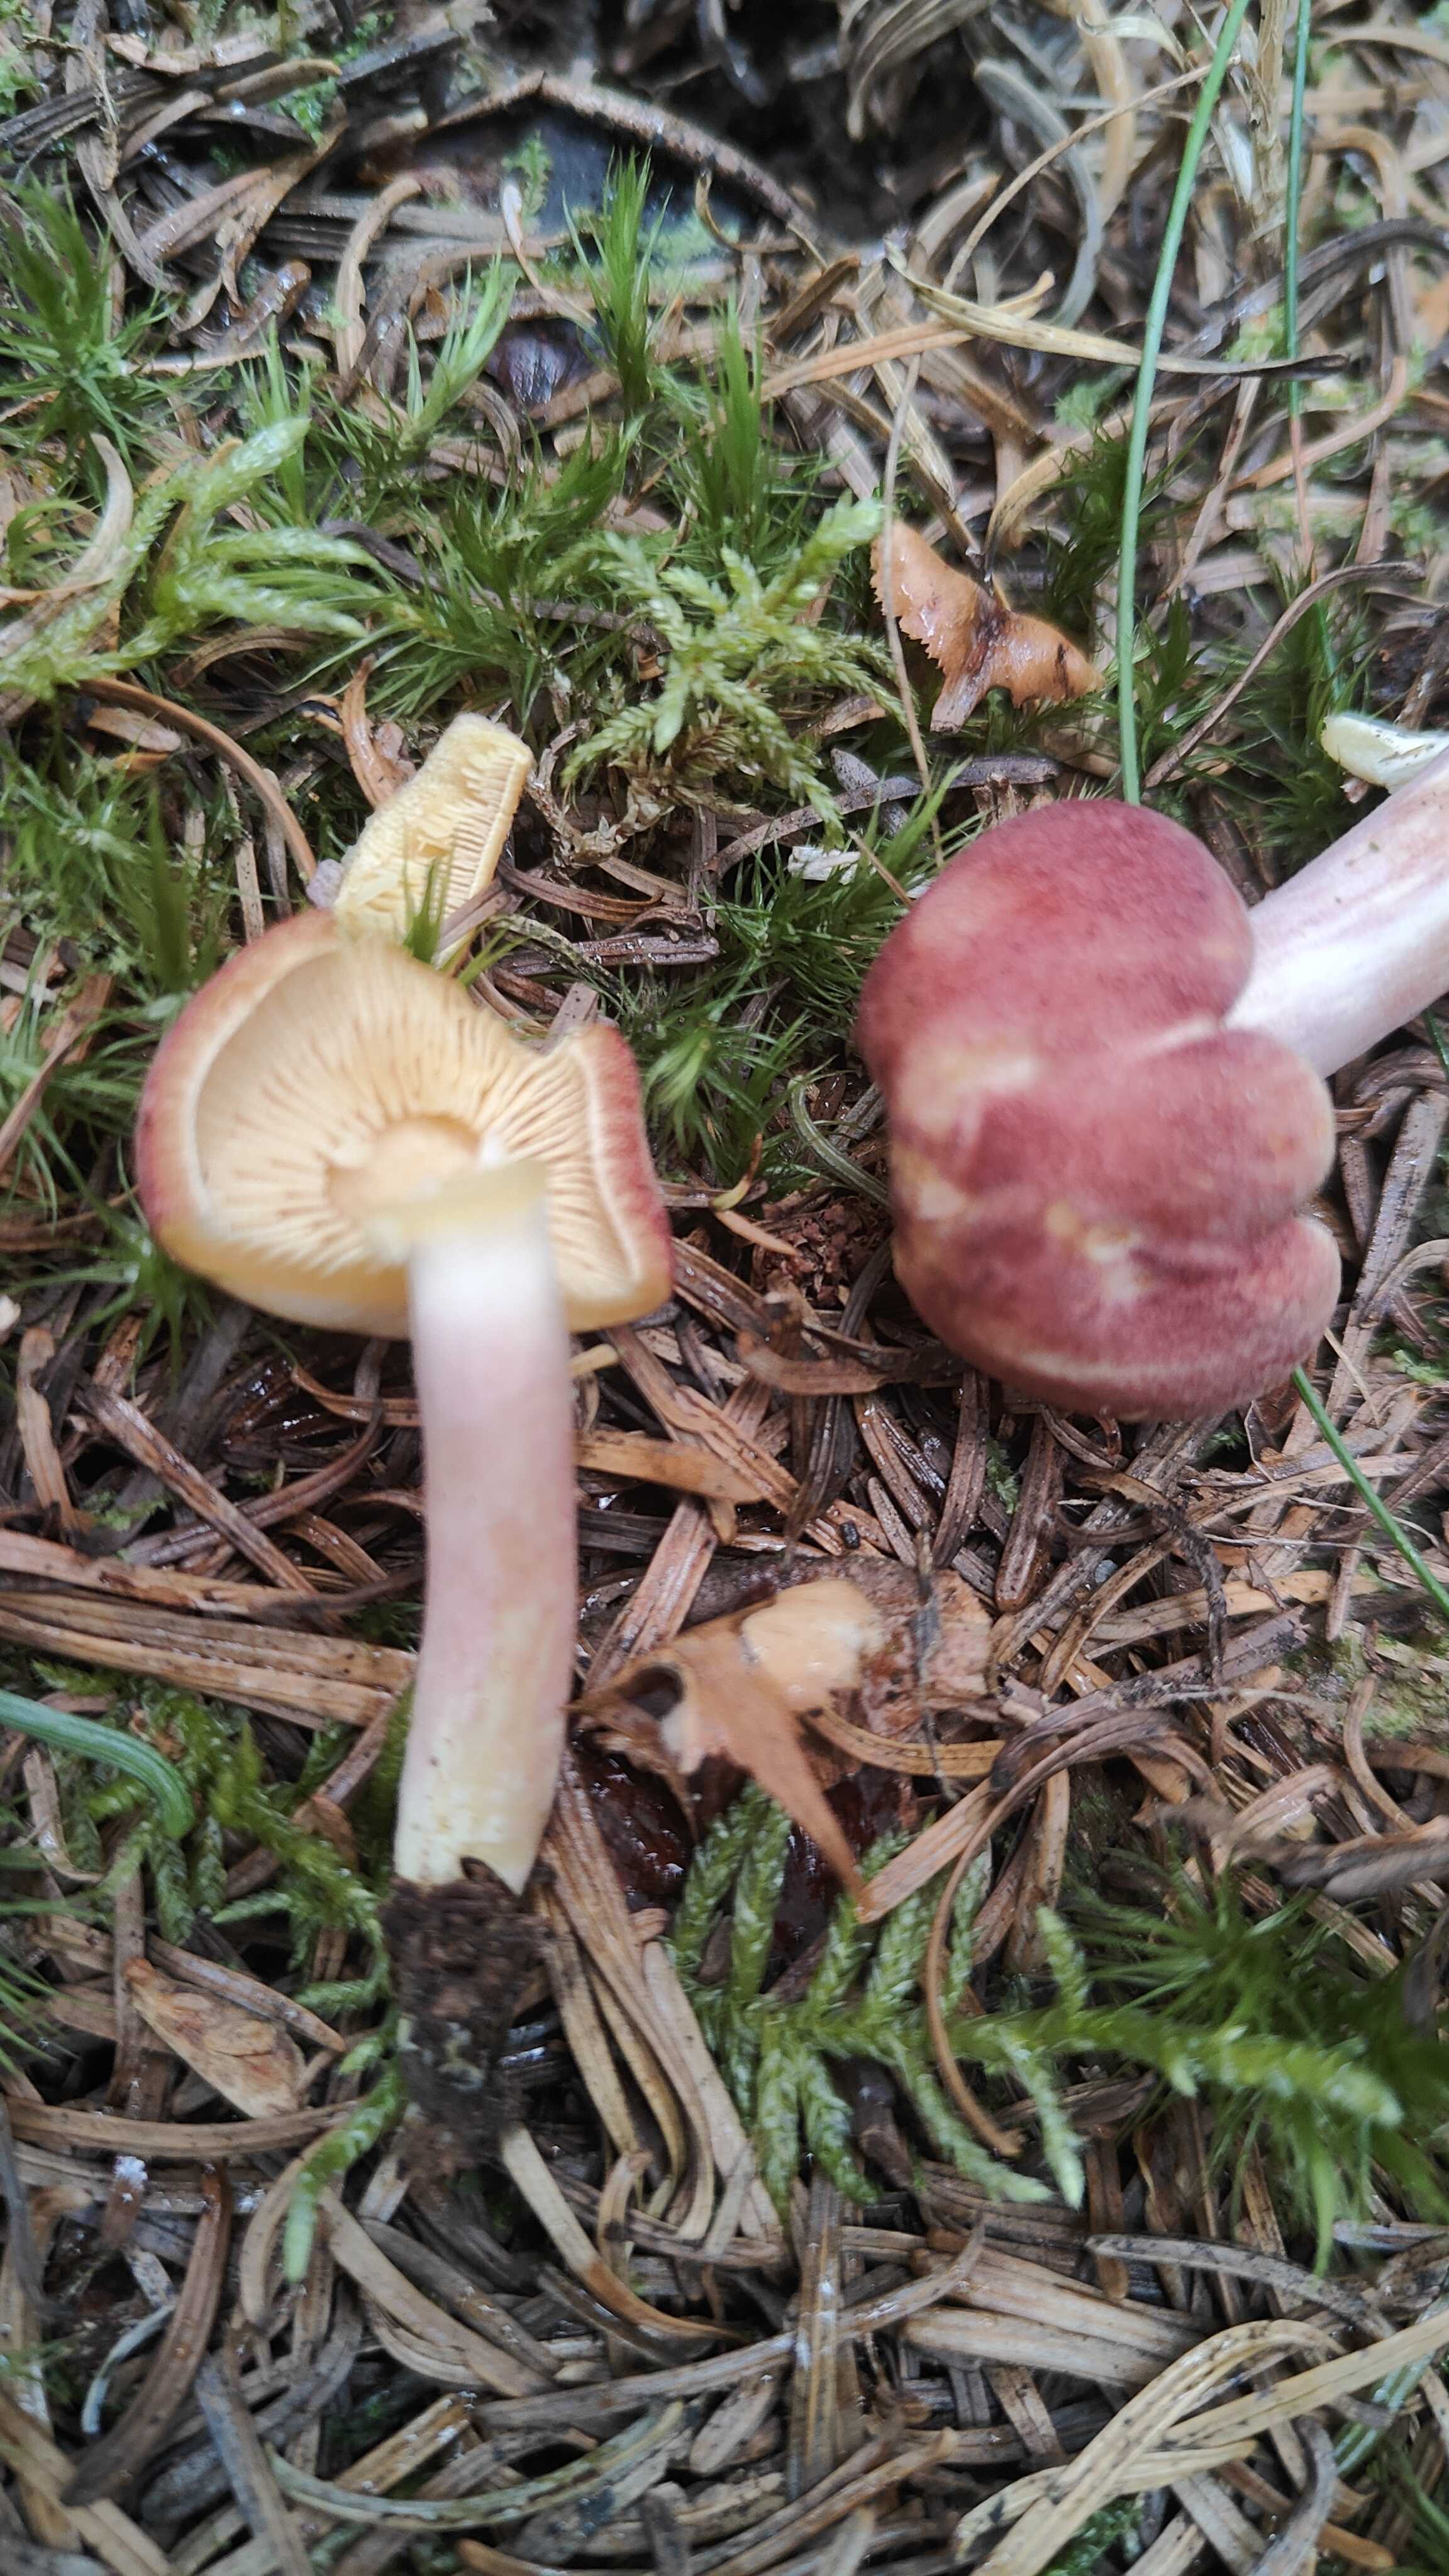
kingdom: Fungi
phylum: Basidiomycota
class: Agaricomycetes
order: Agaricales
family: Tricholomataceae
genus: Tricholomopsis
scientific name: Tricholomopsis rutilans
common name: purpur-væbnerhat
